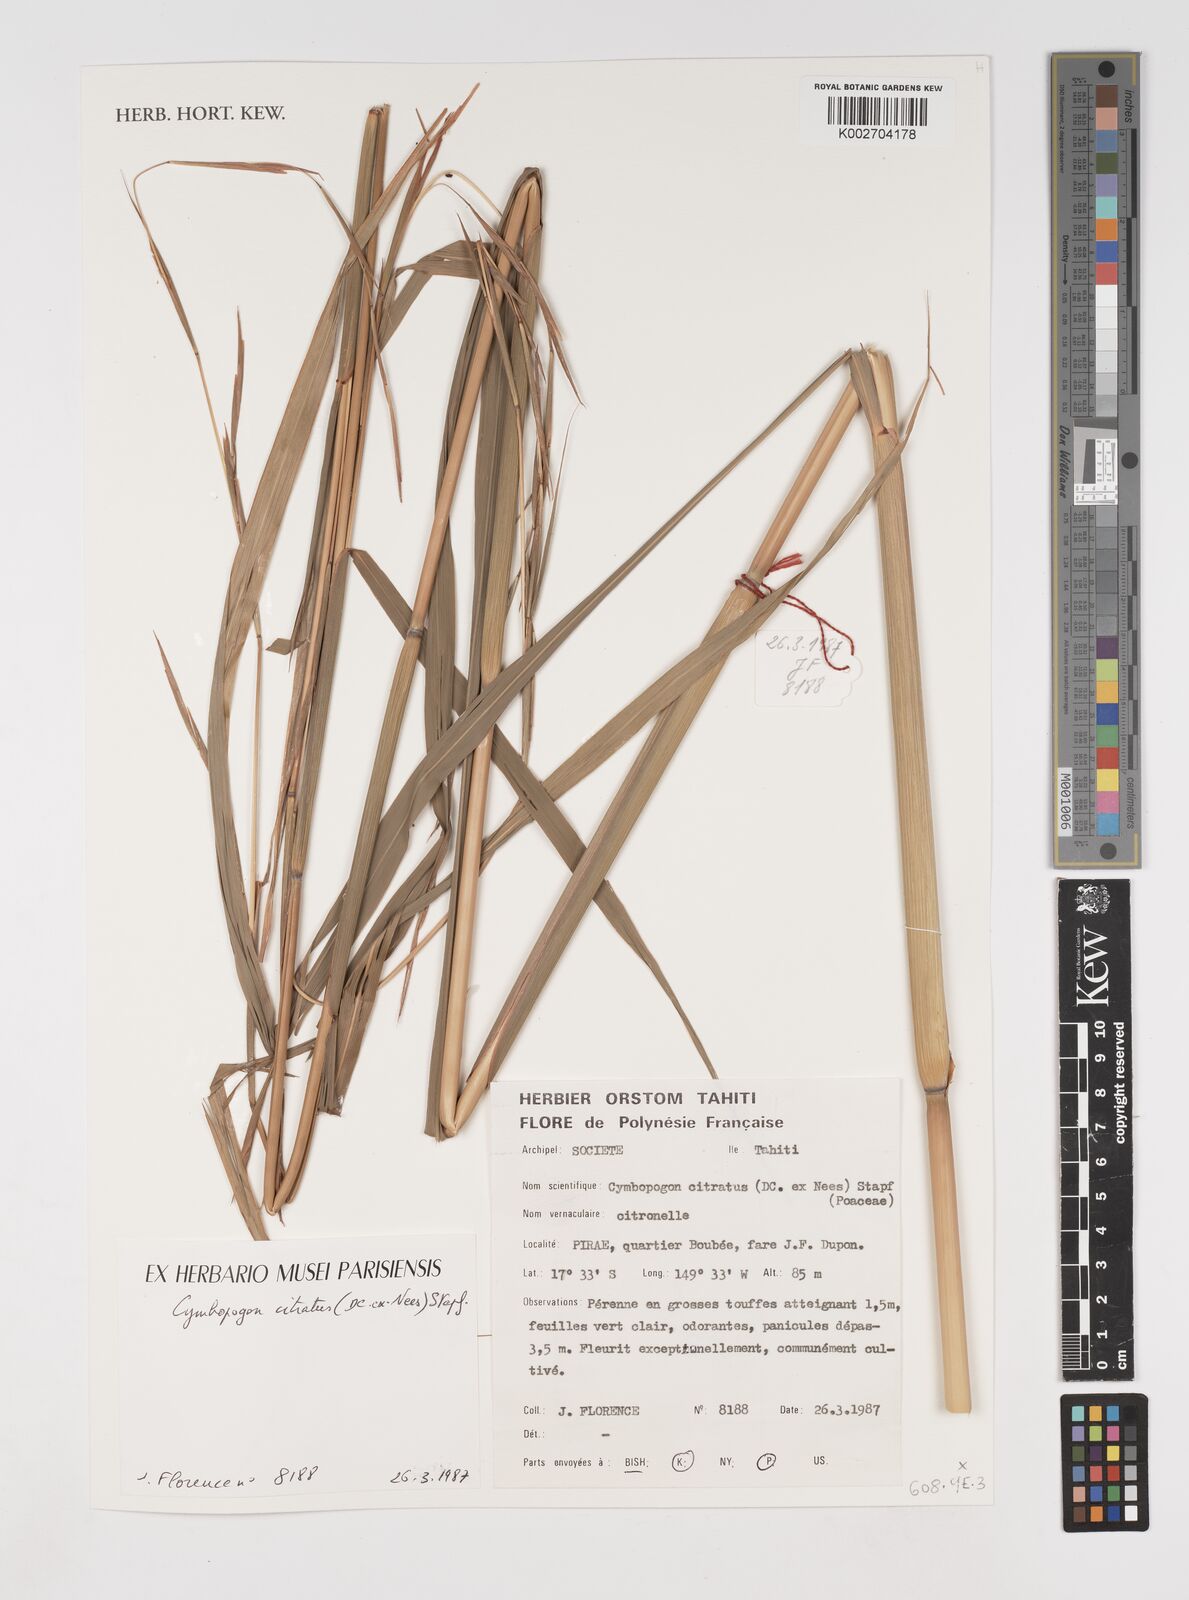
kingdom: Plantae
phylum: Tracheophyta
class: Liliopsida
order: Poales
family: Poaceae
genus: Cymbopogon
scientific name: Cymbopogon citratus
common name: Lemon grass
